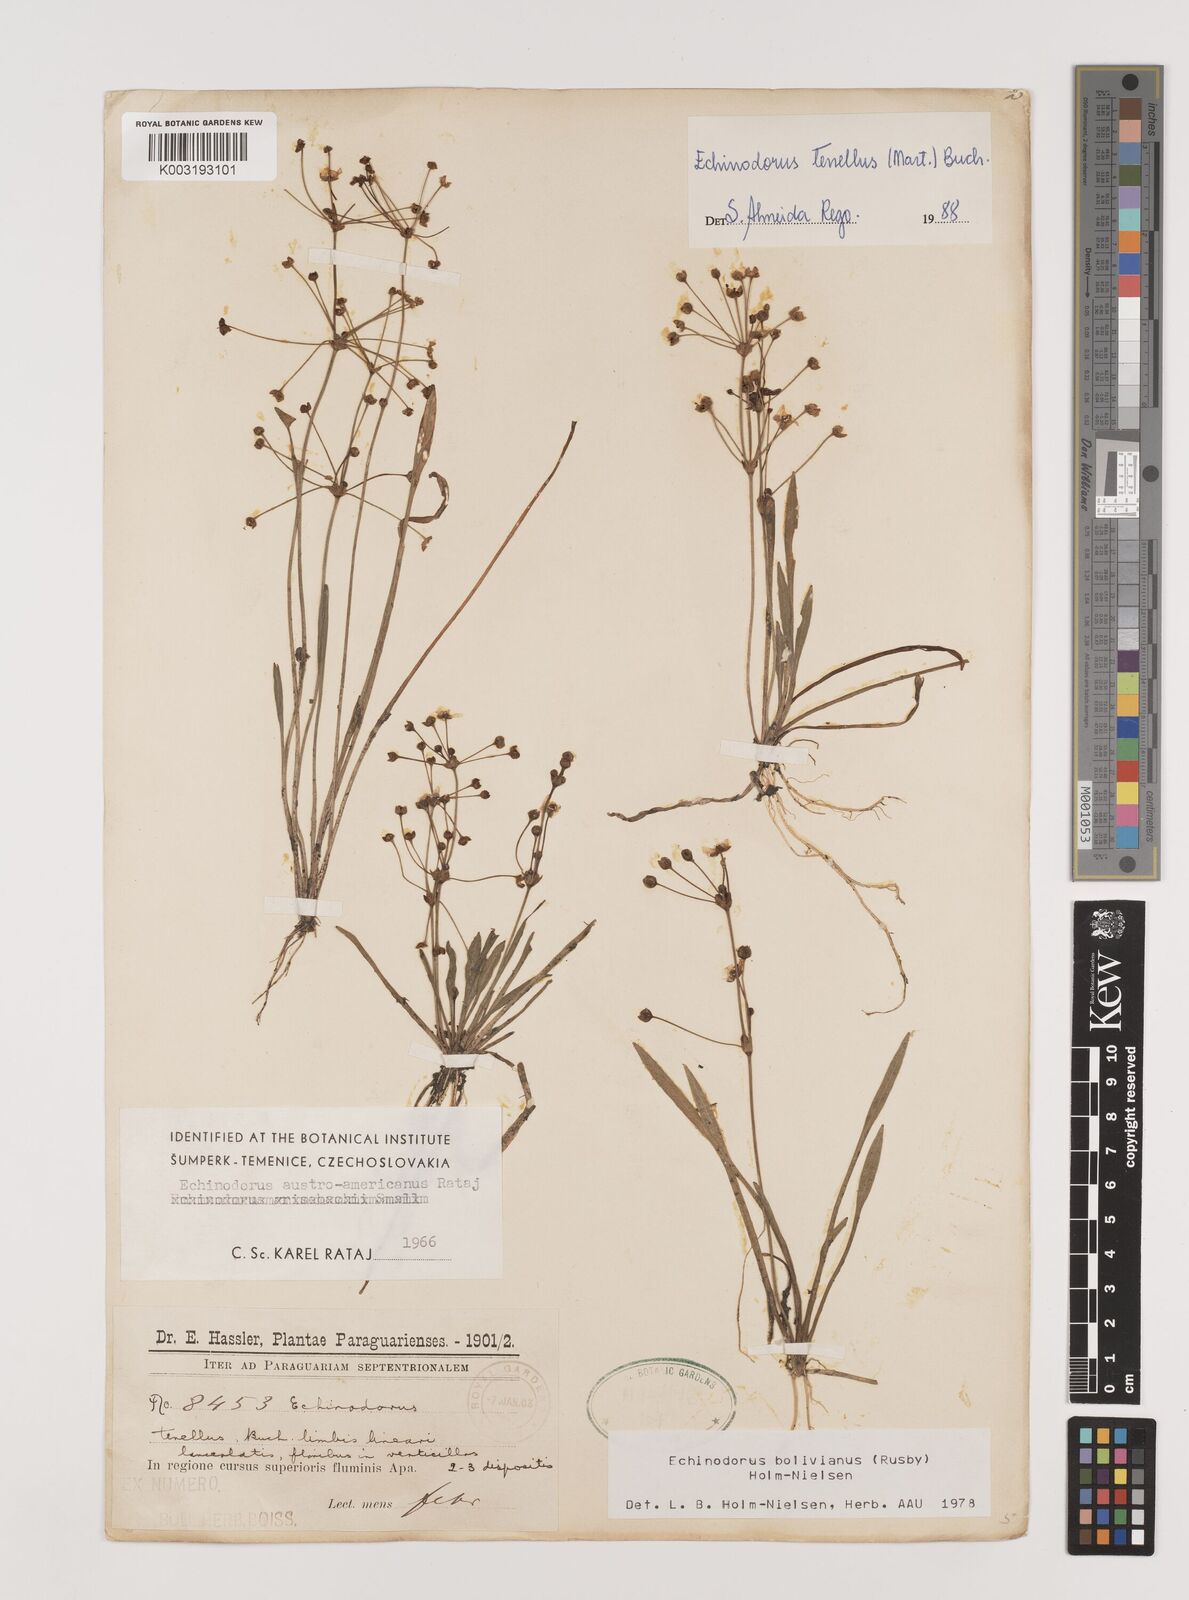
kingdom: Plantae
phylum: Tracheophyta
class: Liliopsida
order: Alismatales
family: Alismataceae
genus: Helanthium
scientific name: Helanthium bolivianum
